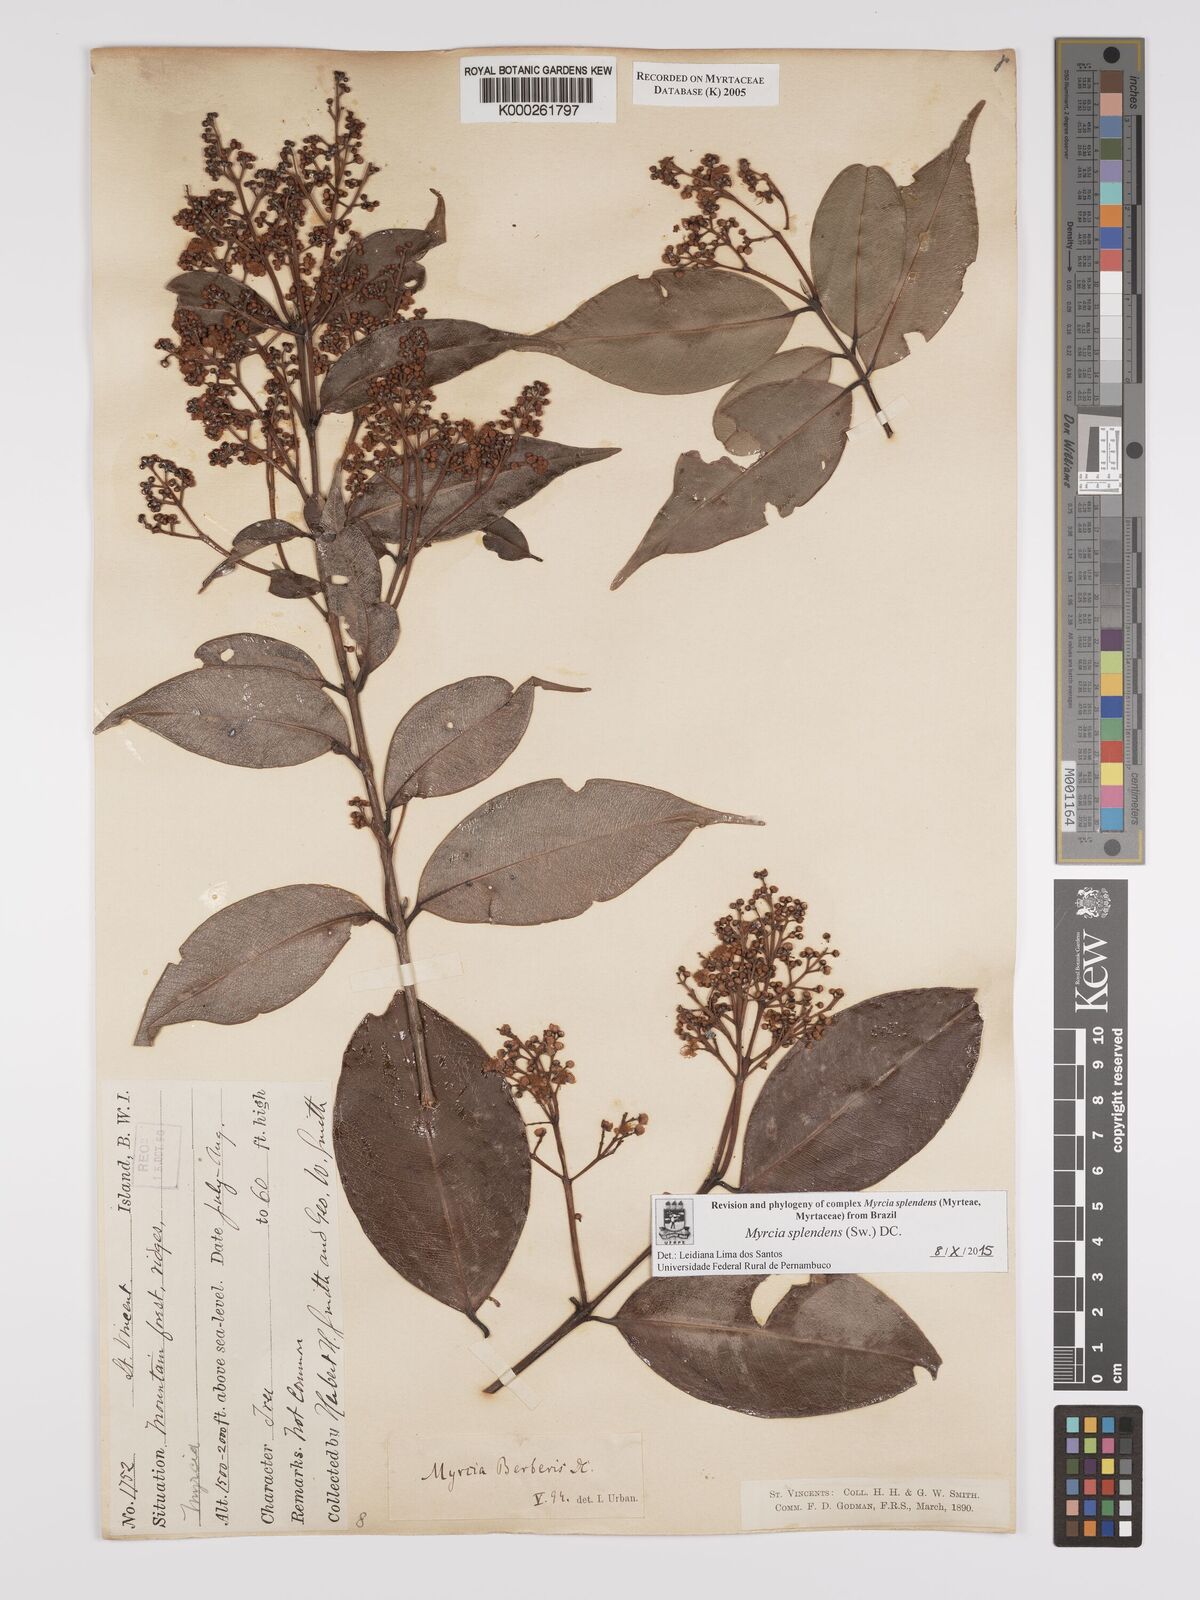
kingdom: Plantae
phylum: Tracheophyta
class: Magnoliopsida
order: Myrtales
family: Myrtaceae
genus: Myrcia
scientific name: Myrcia splendens
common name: Surinam cherry
